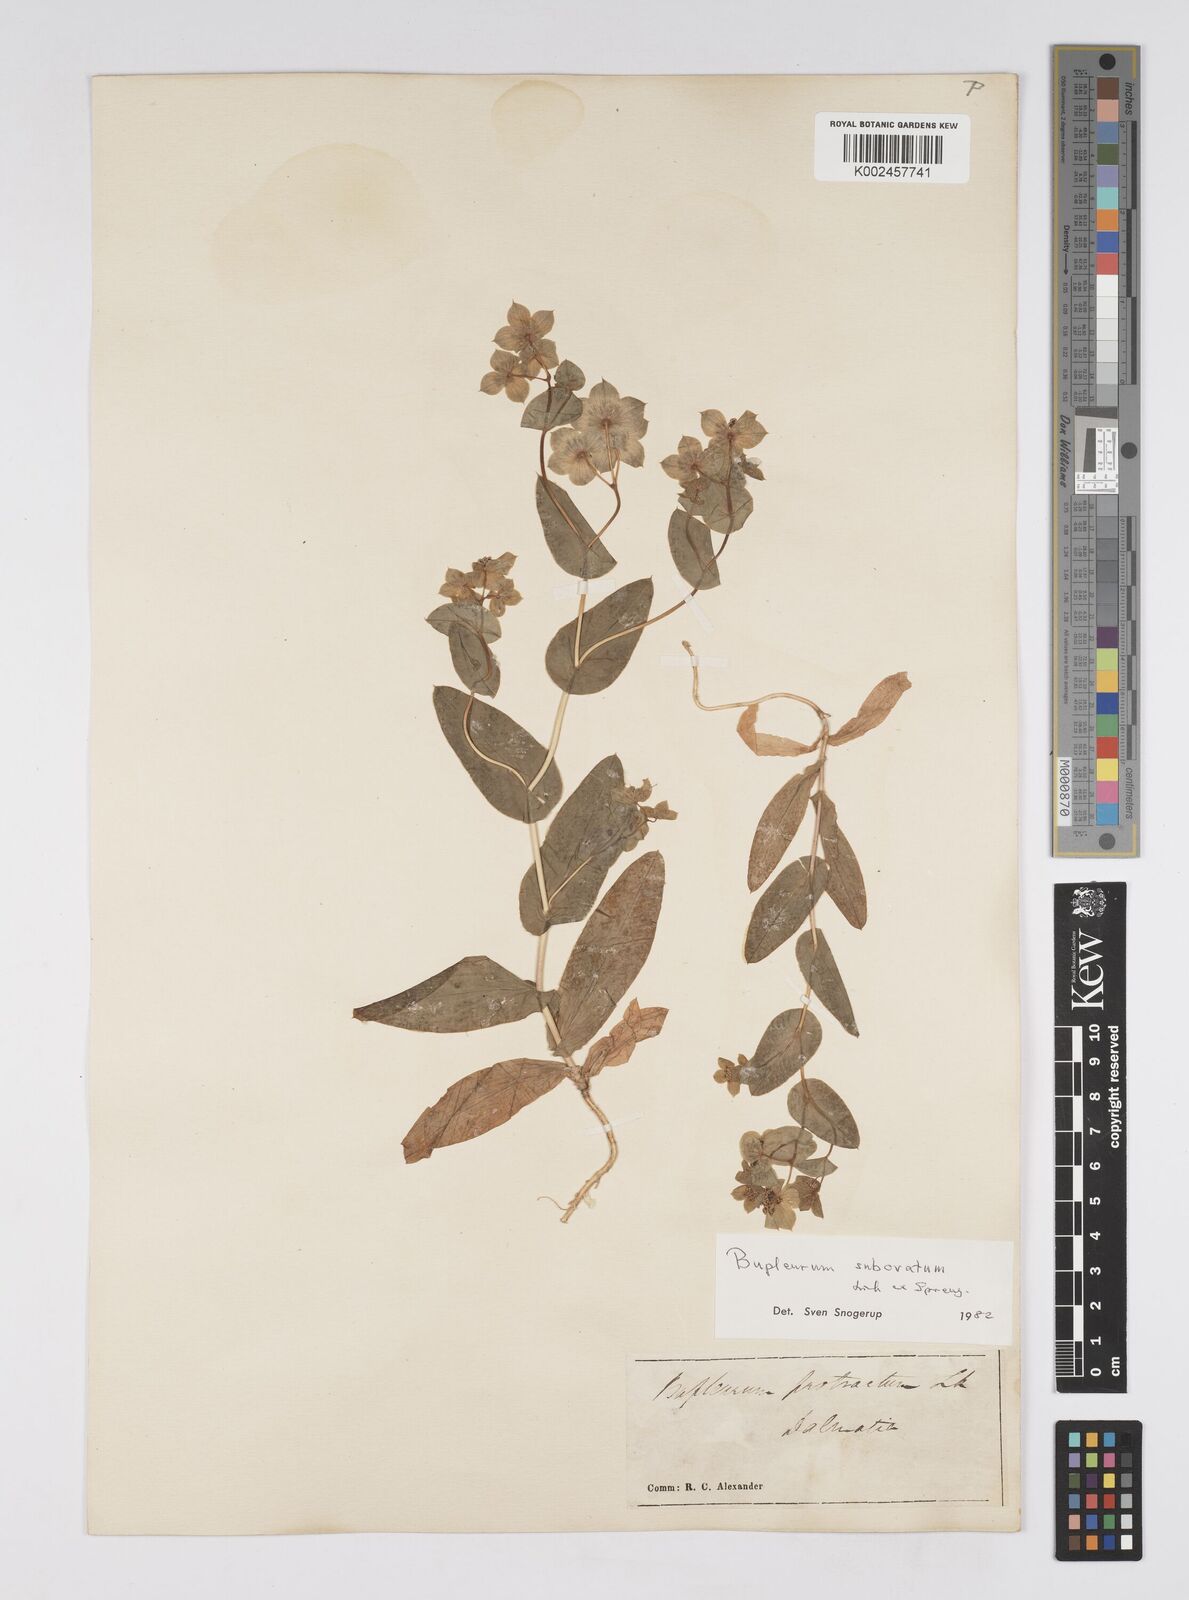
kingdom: Plantae
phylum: Tracheophyta
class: Magnoliopsida
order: Apiales
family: Apiaceae
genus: Bupleurum
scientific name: Bupleurum subovatum
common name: False thorow-wax
